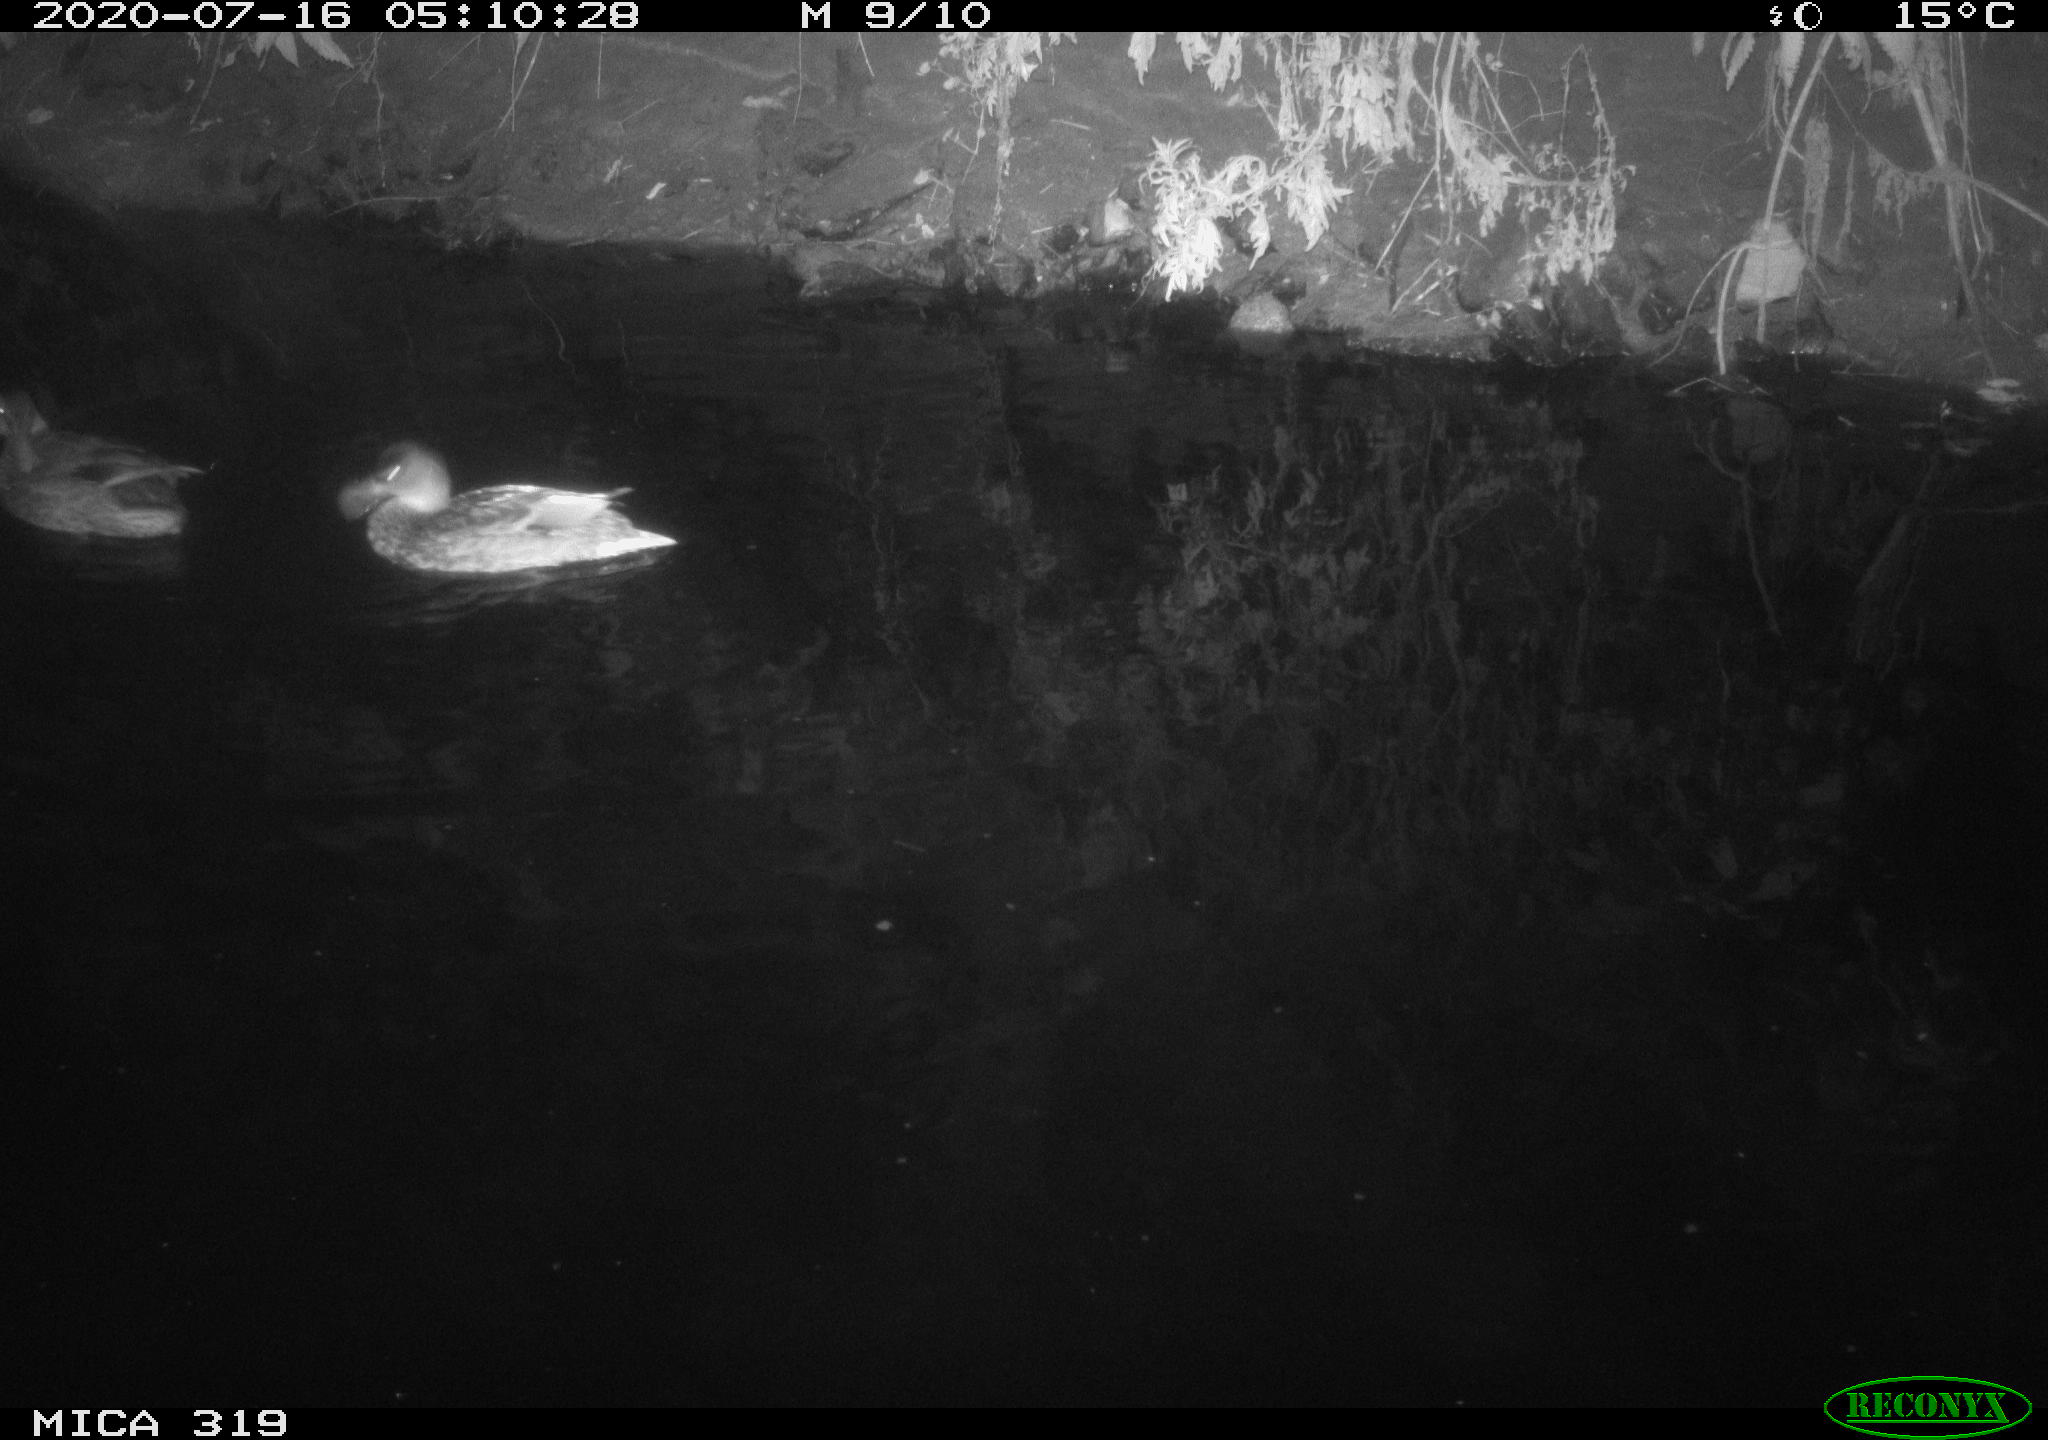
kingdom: Animalia
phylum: Chordata
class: Aves
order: Anseriformes
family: Anatidae
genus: Anas
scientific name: Anas platyrhynchos
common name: Mallard
